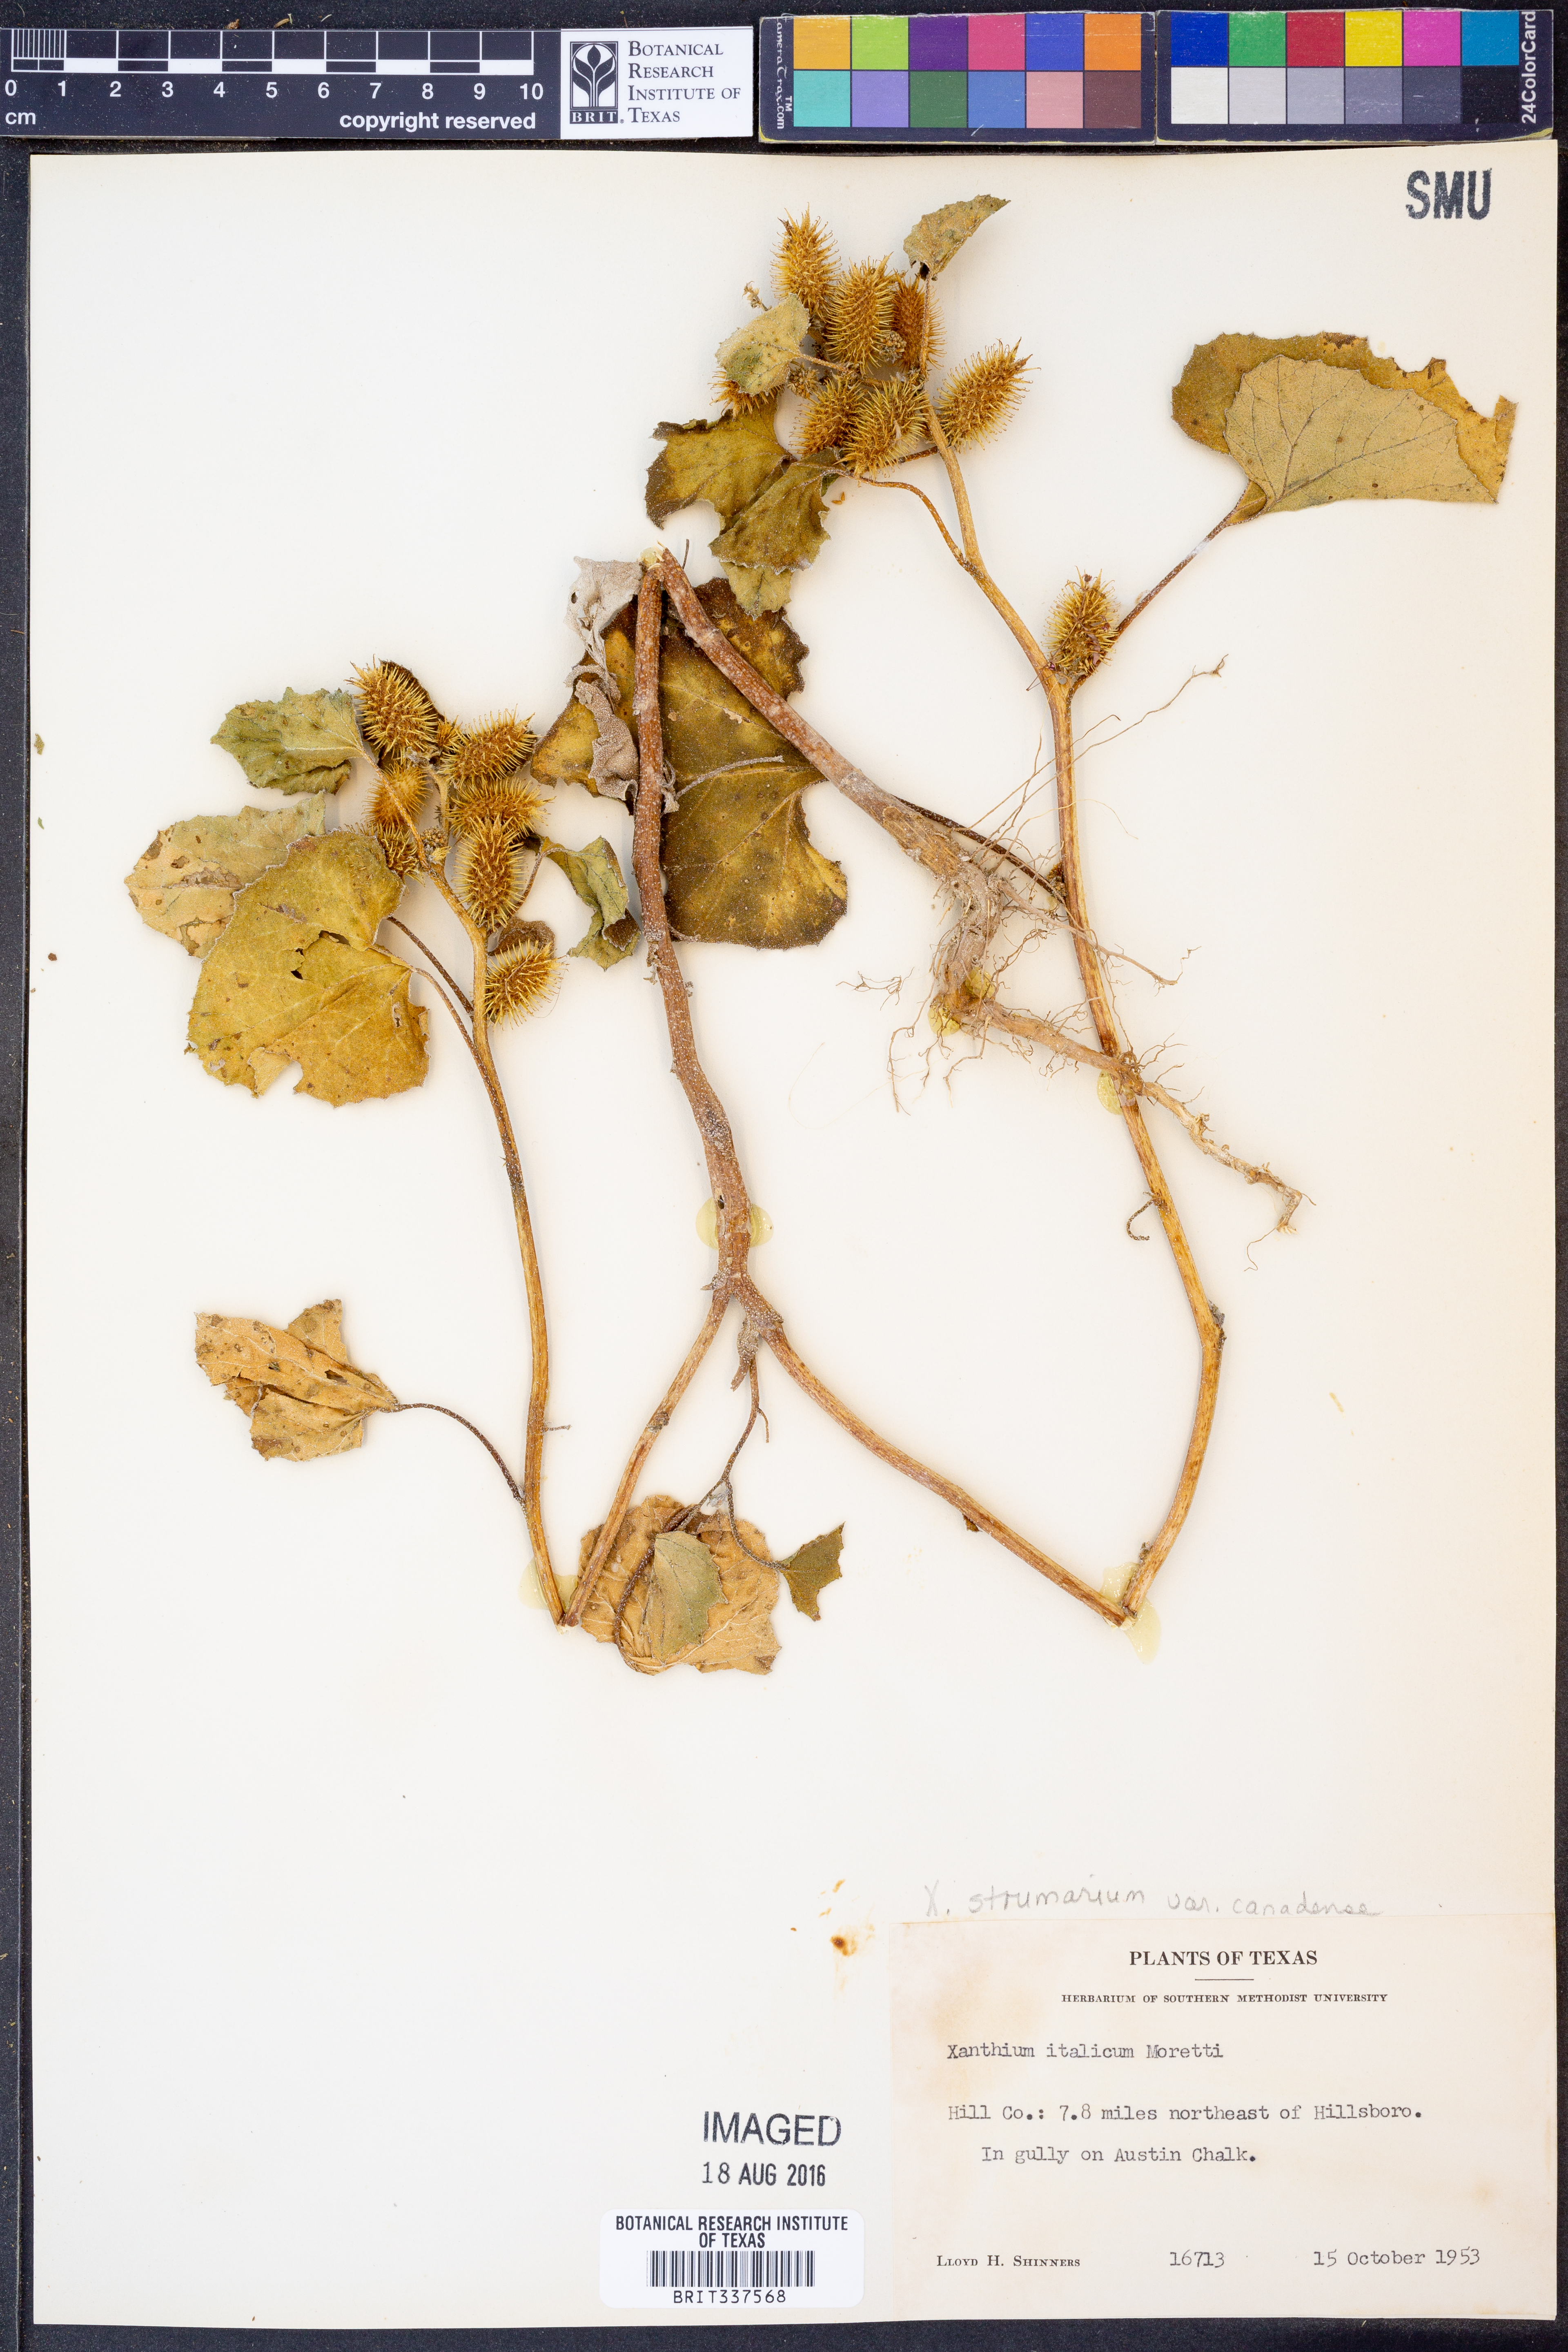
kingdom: Plantae
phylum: Tracheophyta
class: Magnoliopsida
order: Asterales
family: Asteraceae
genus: Xanthium
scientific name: Xanthium orientale
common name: Californian burr
